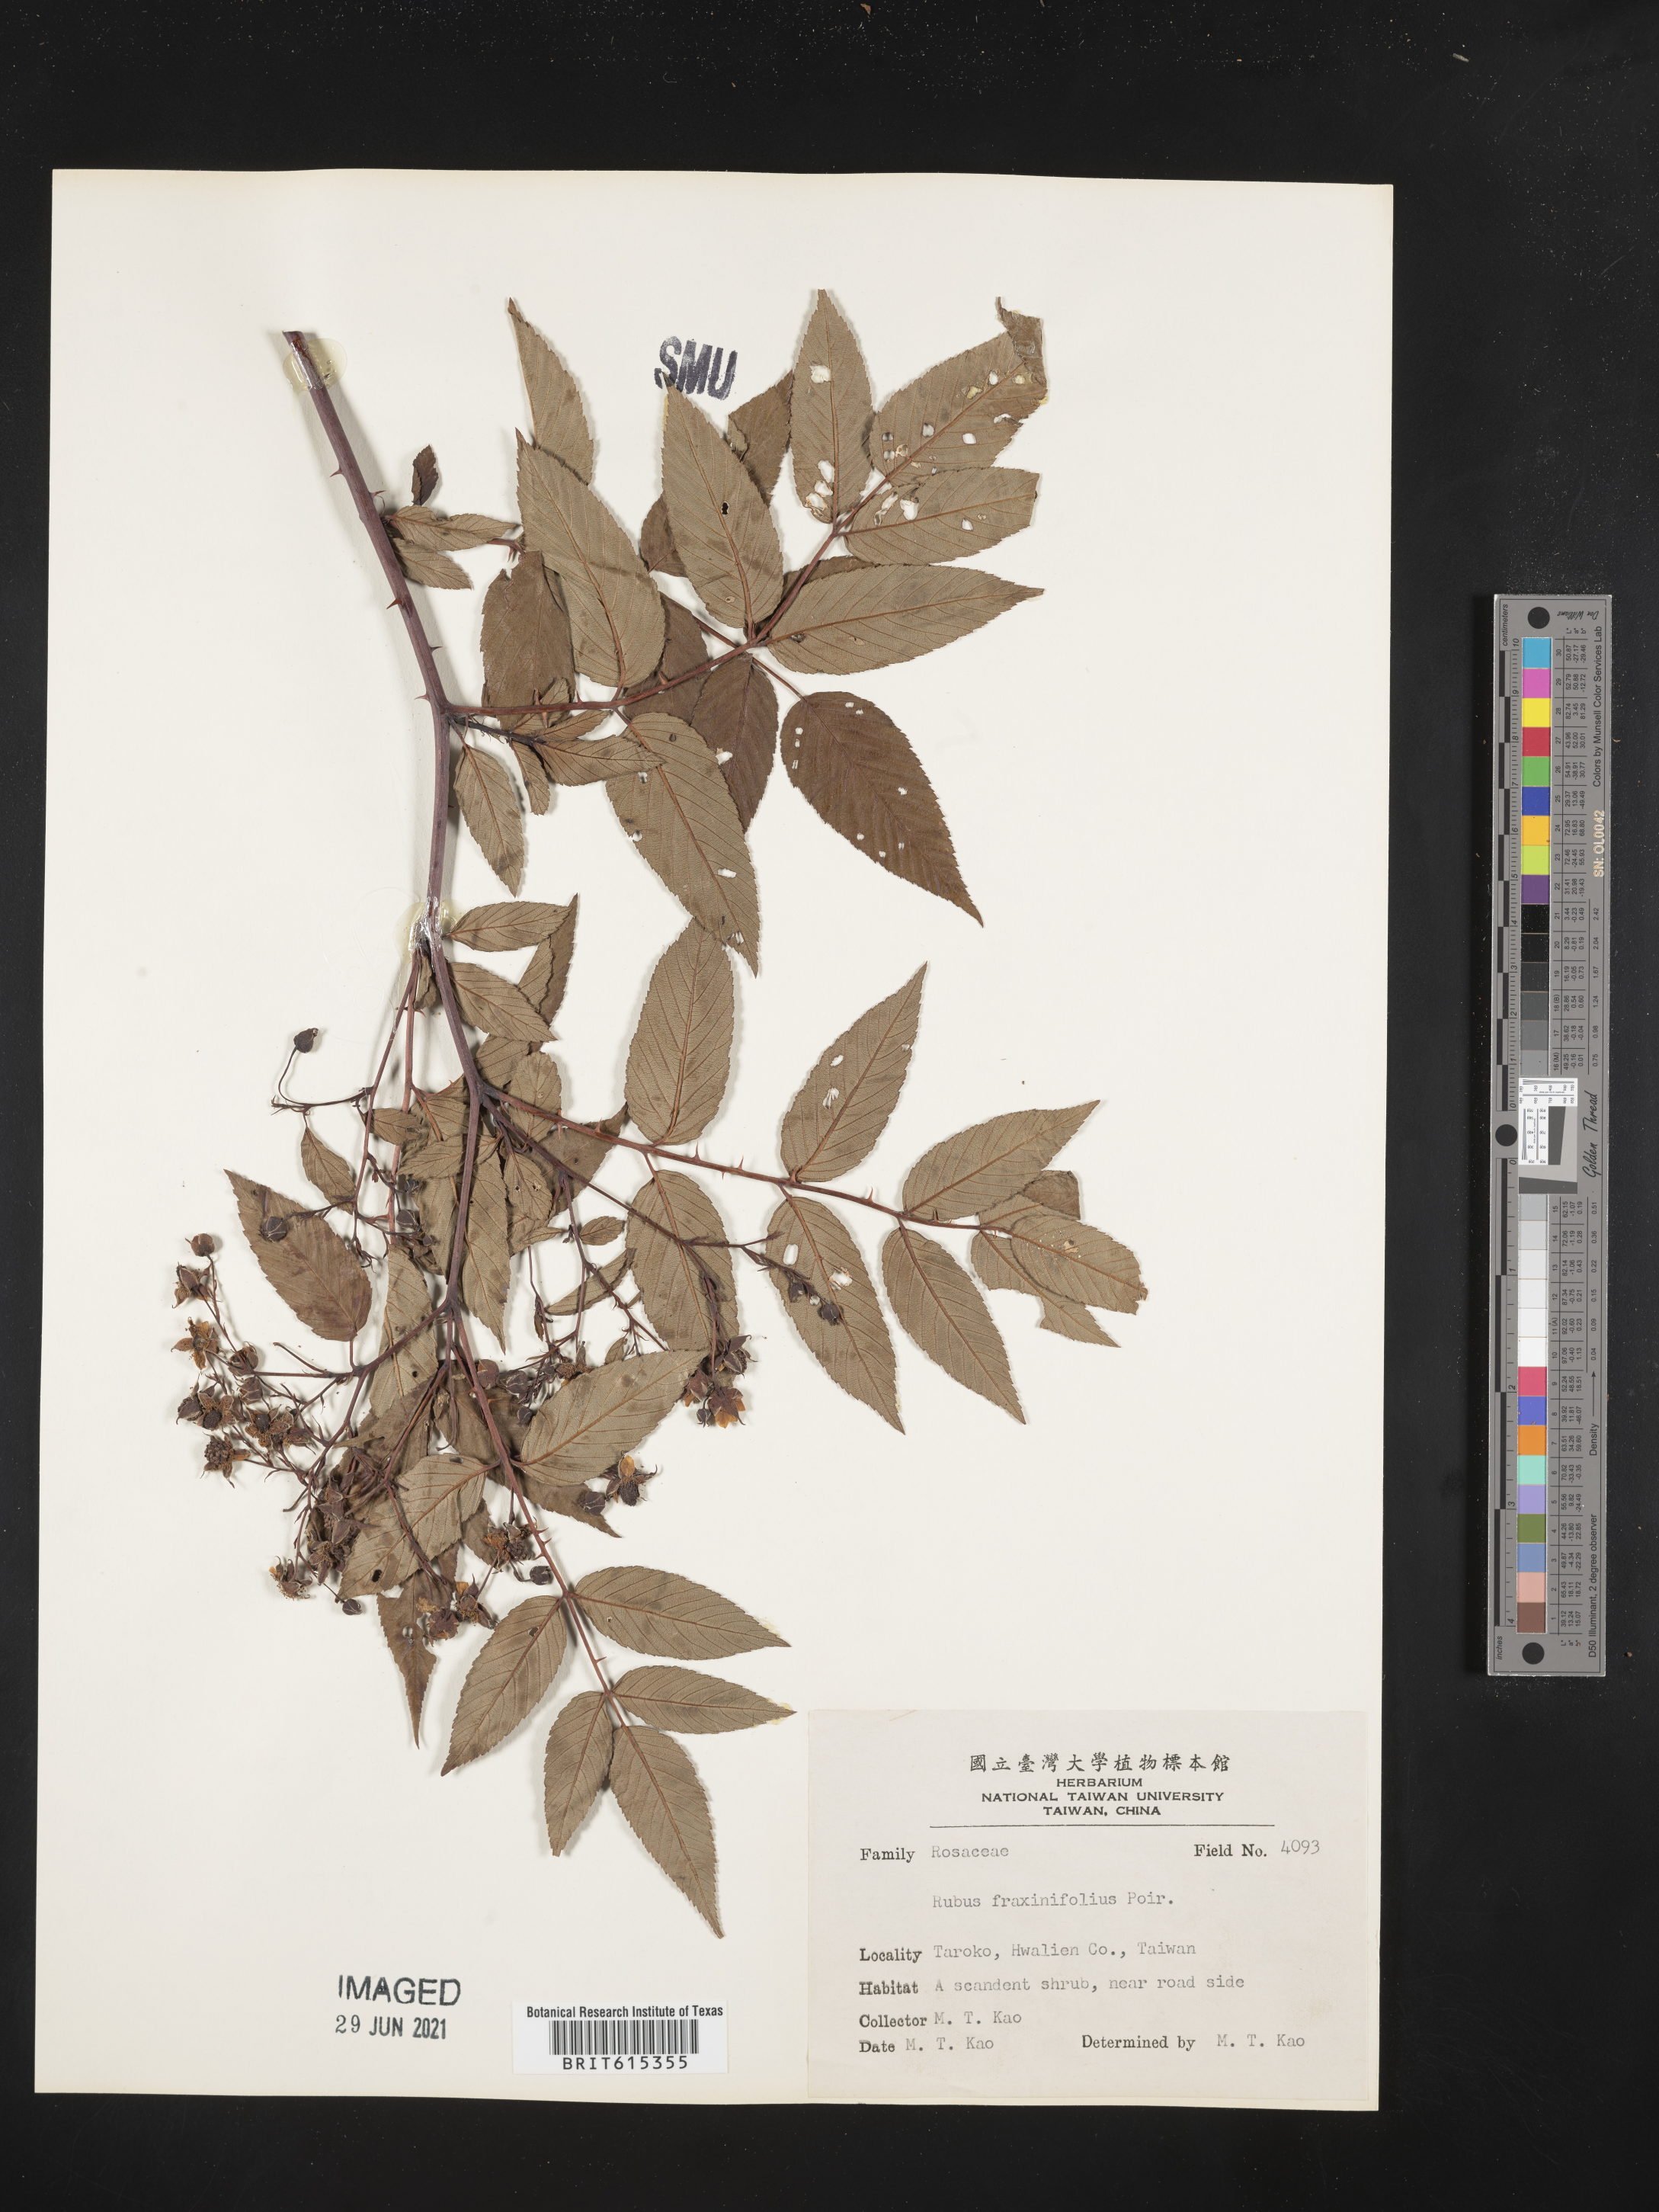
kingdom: Plantae
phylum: Tracheophyta
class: Magnoliopsida
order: Rosales
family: Rosaceae
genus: Rubus
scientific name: Rubus fraxinifolius
